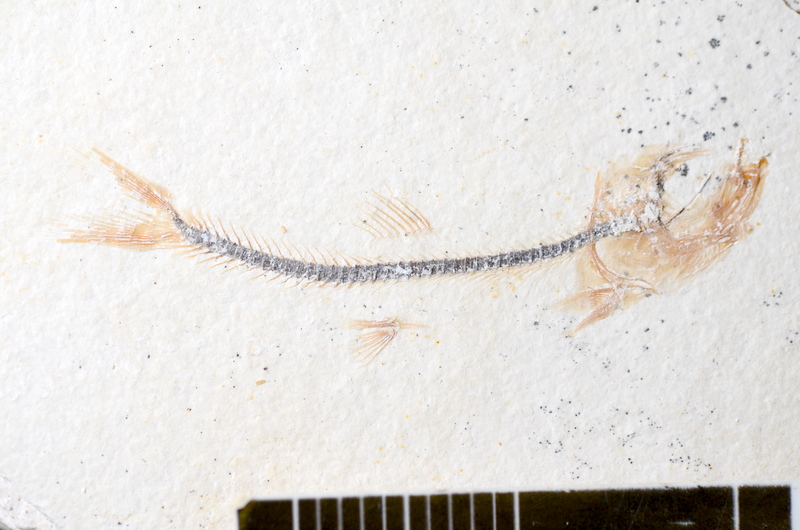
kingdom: Animalia
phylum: Chordata
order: Salmoniformes
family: Orthogonikleithridae
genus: Orthogonikleithrus
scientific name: Orthogonikleithrus hoelli
